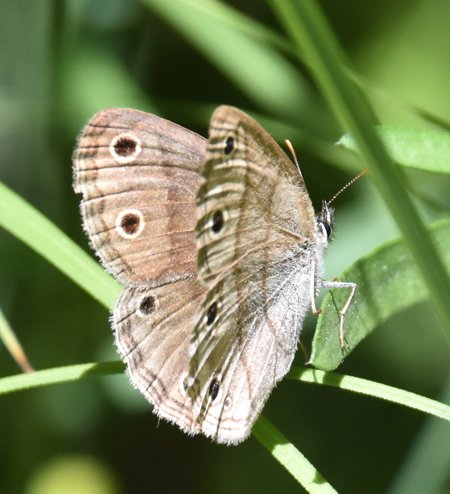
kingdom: Animalia
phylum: Arthropoda
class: Insecta
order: Lepidoptera
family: Nymphalidae
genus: Euptychia
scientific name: Euptychia cymela
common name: Little Wood Satyr
